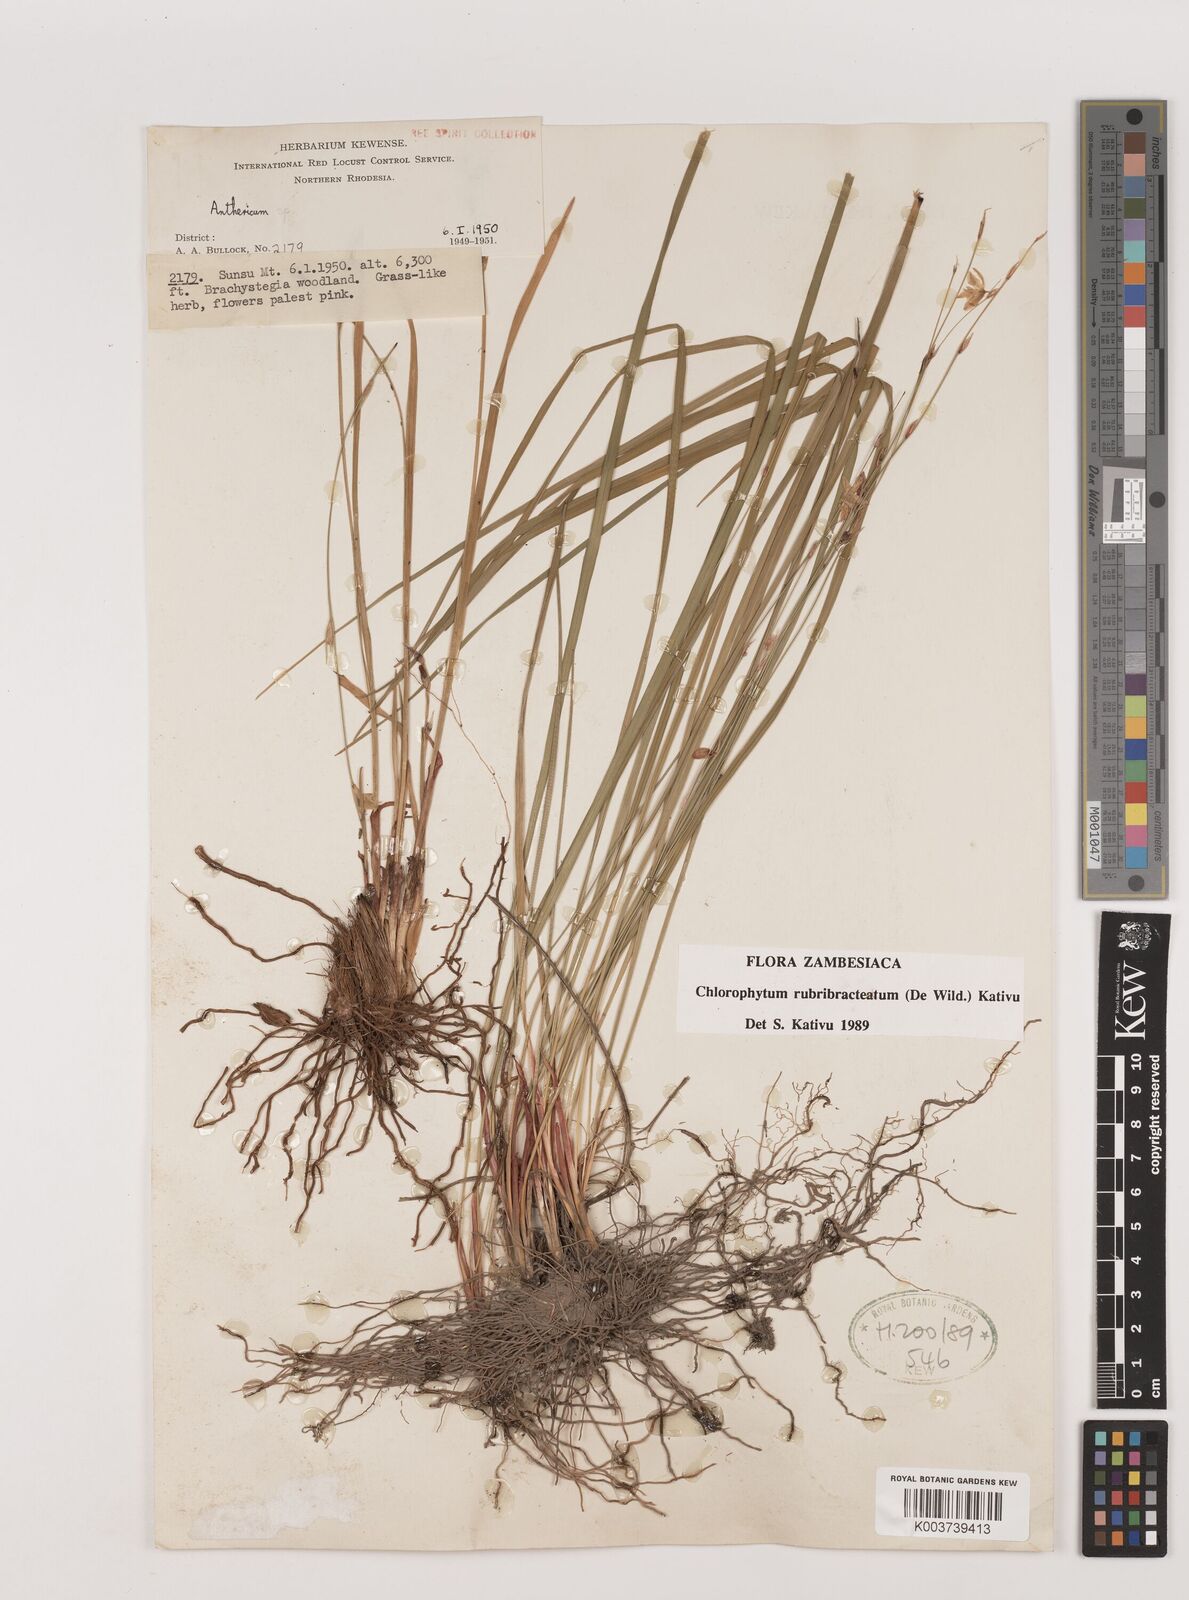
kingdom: Plantae
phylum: Tracheophyta
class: Liliopsida
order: Asparagales
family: Asparagaceae
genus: Chlorophytum
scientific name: Chlorophytum rubribracteatum
